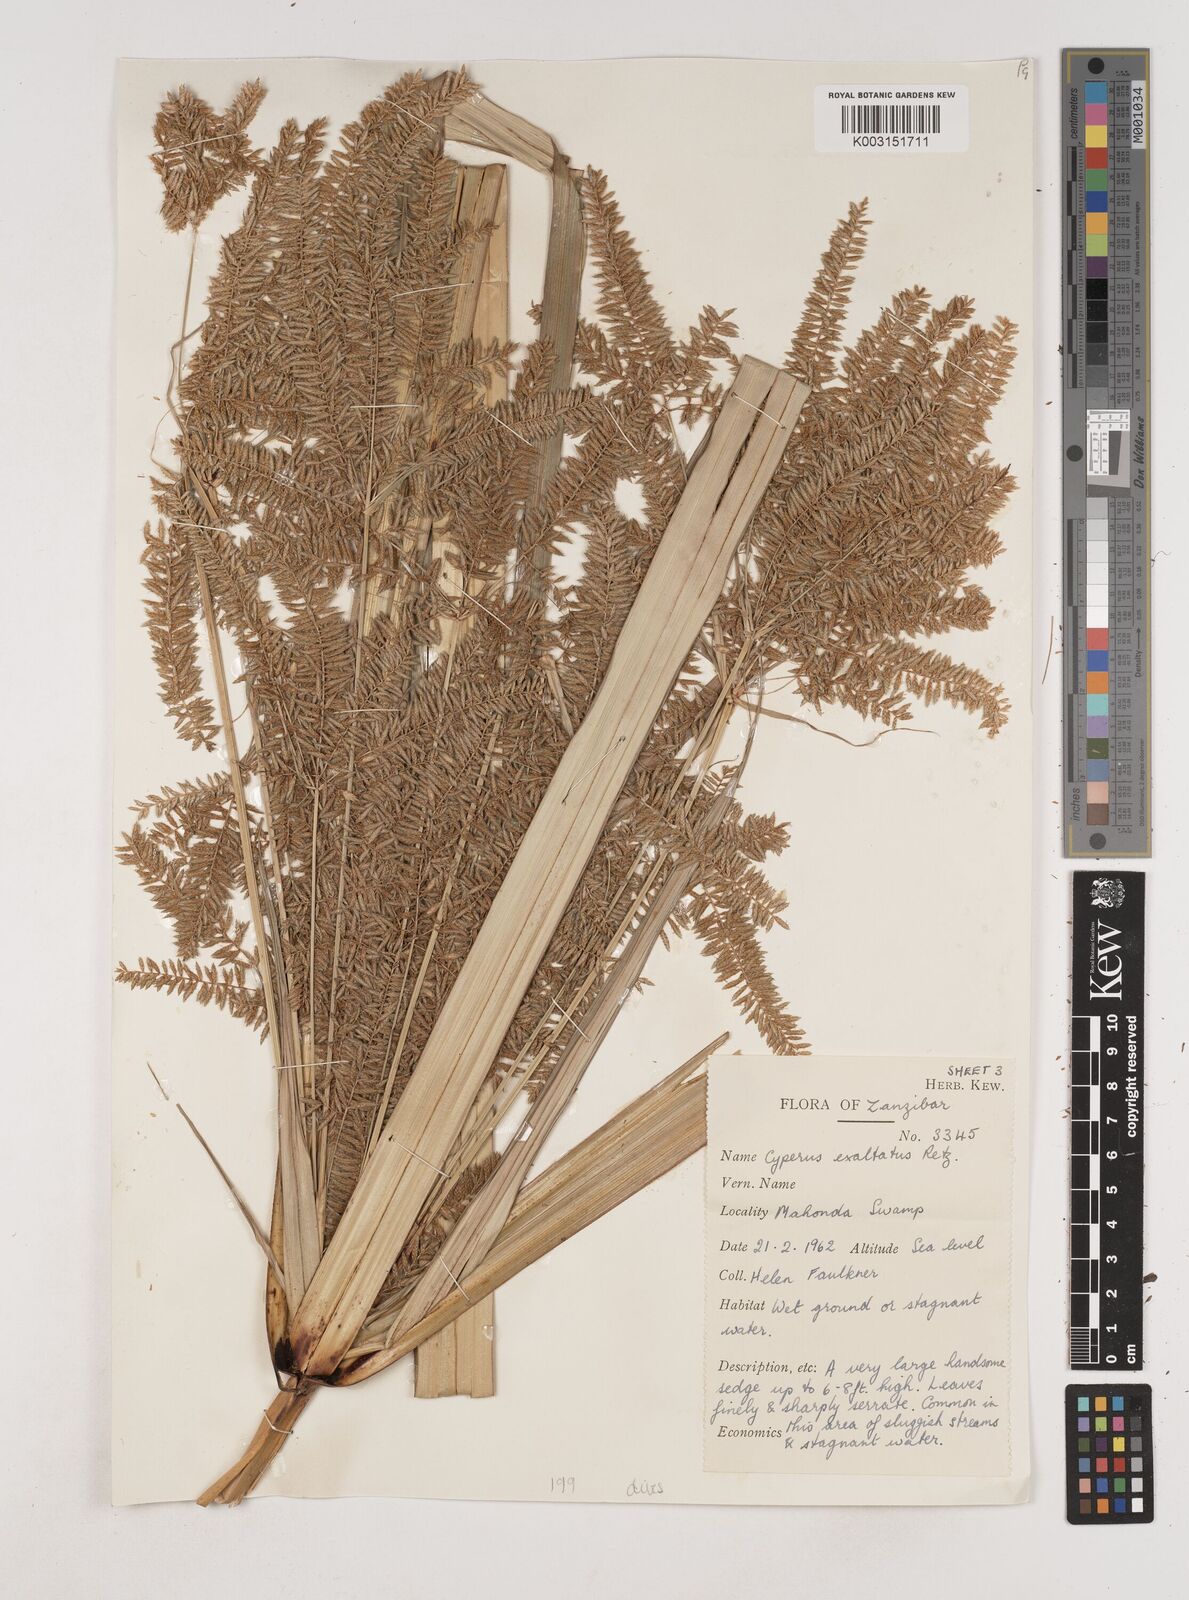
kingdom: Plantae
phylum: Tracheophyta
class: Liliopsida
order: Poales
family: Cyperaceae
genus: Cyperus
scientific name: Cyperus exaltatus
